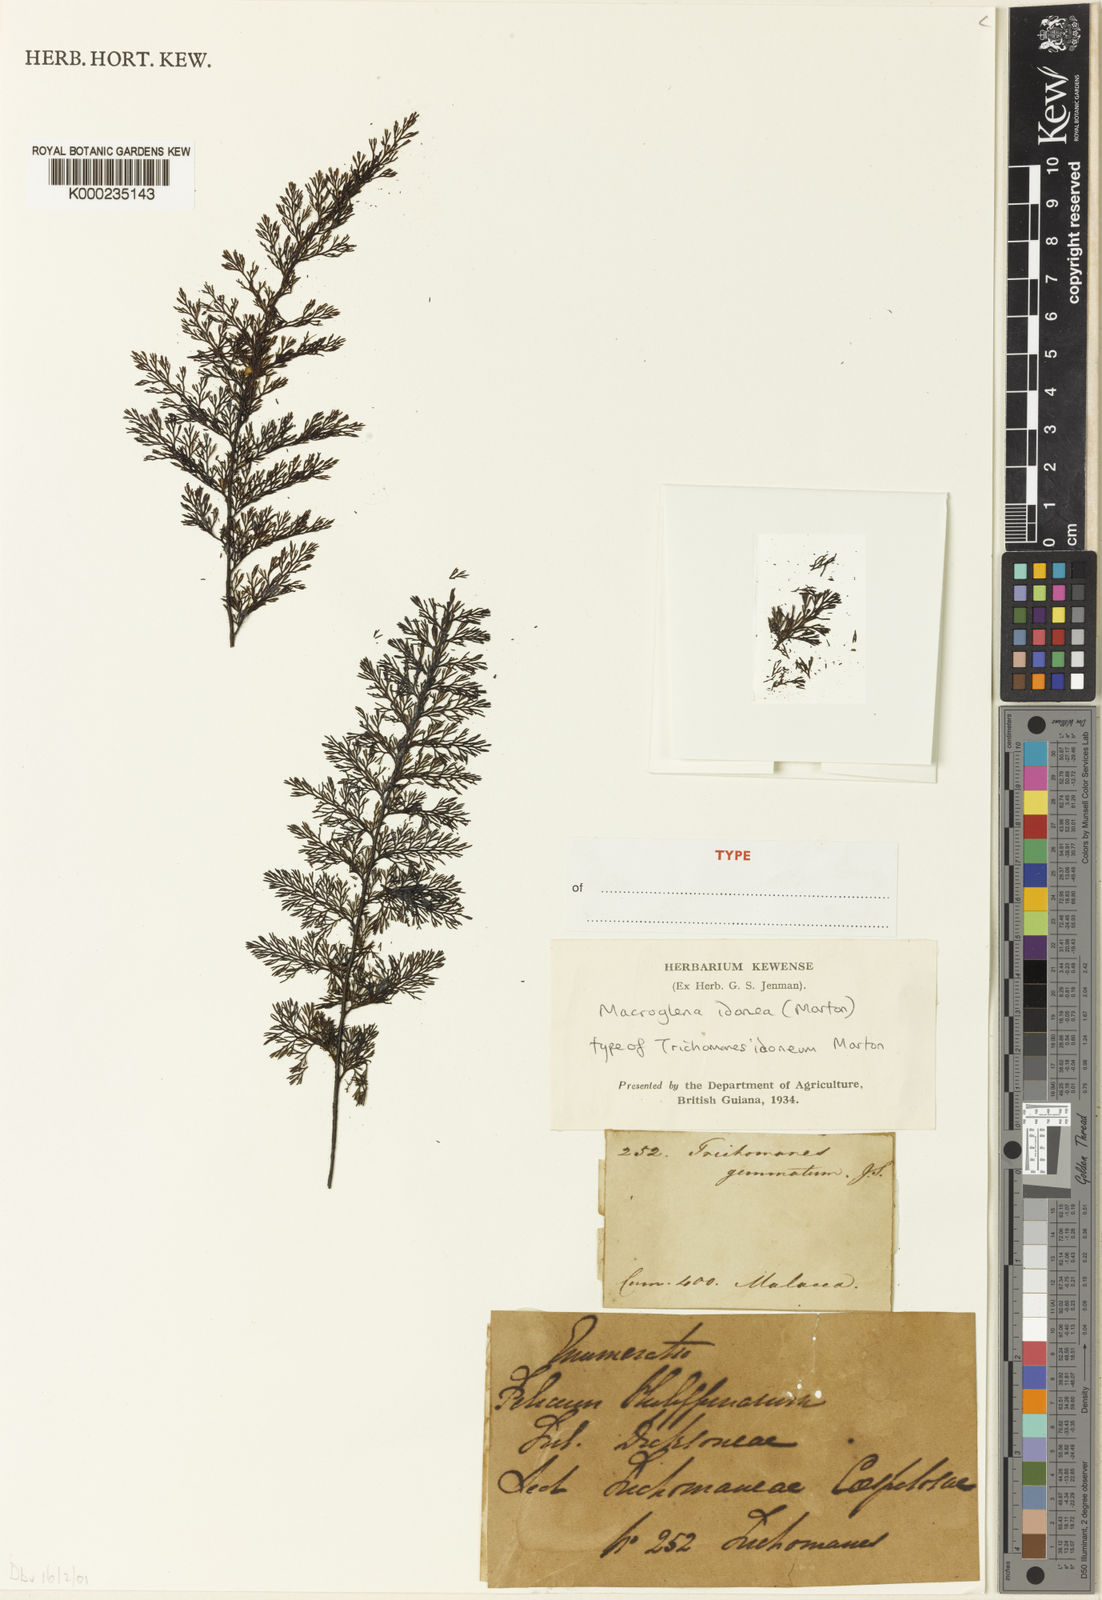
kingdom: Plantae
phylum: Tracheophyta
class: Polypodiopsida
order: Hymenophyllales
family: Hymenophyllaceae
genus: Abrodictyum
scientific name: Abrodictyum idoneum
